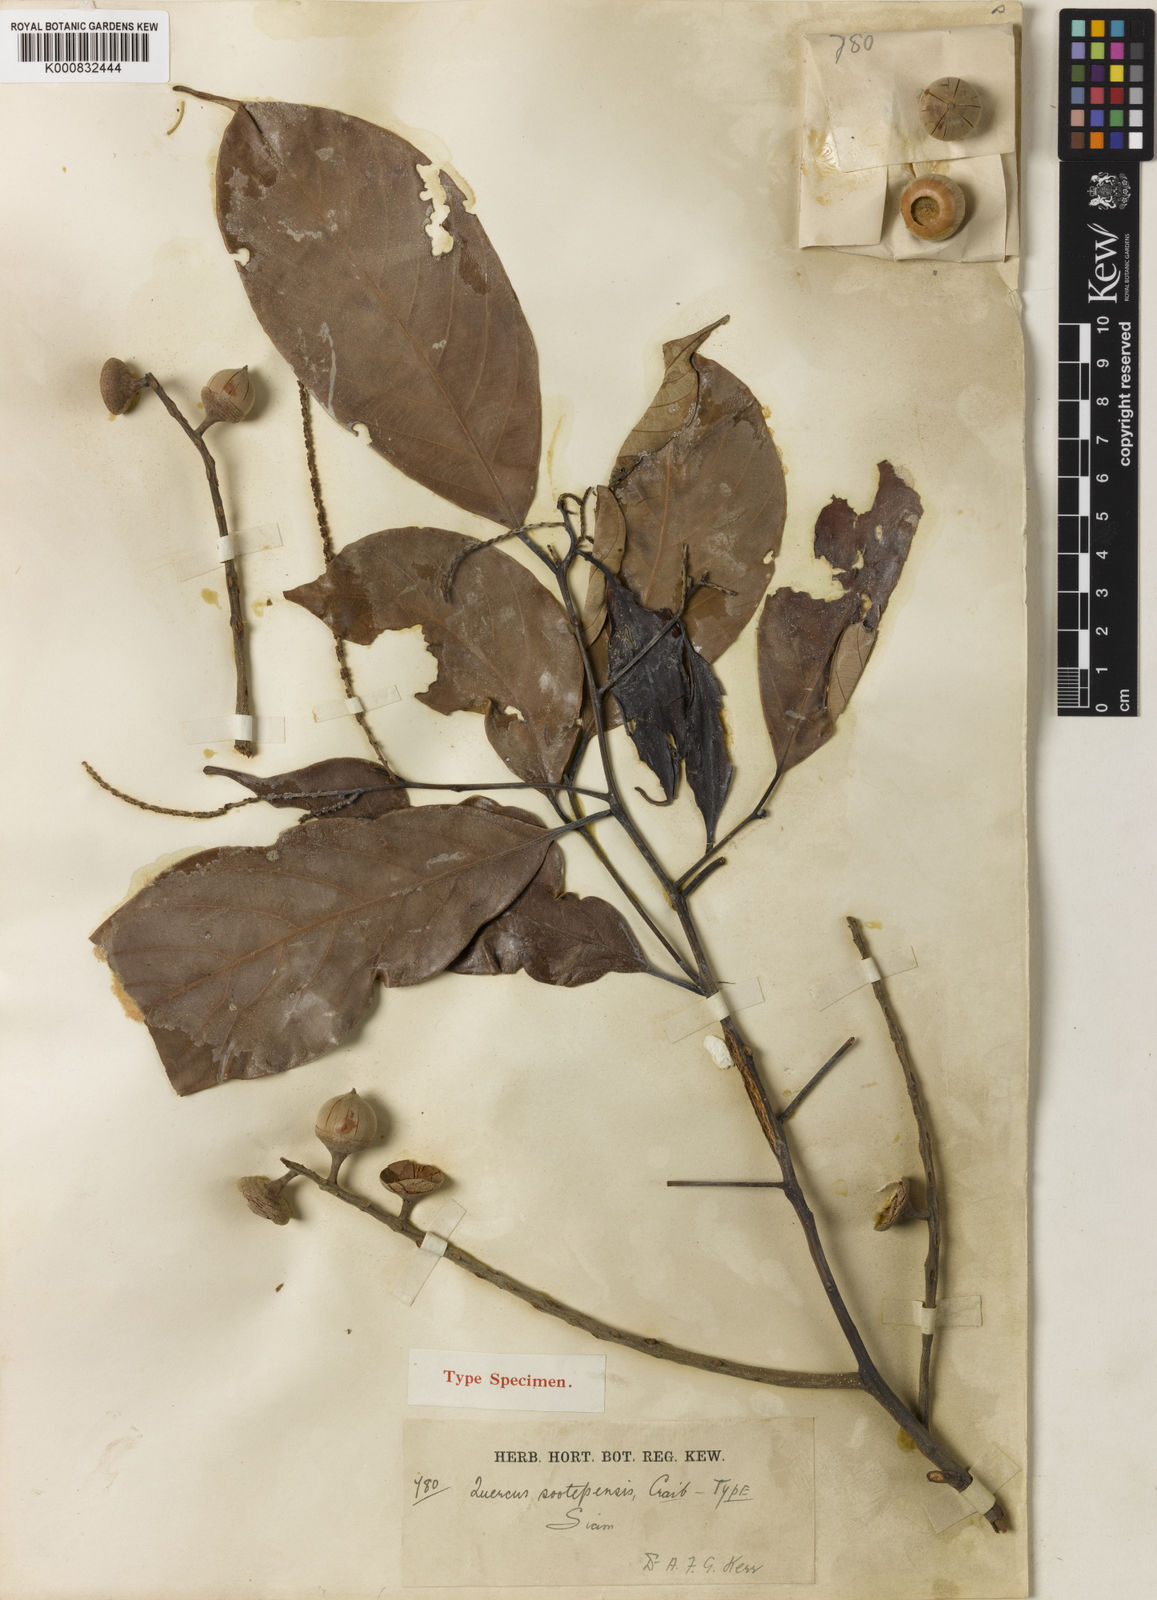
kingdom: Plantae
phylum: Tracheophyta
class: Magnoliopsida
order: Fagales
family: Fagaceae
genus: Lithocarpus
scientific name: Lithocarpus sootepensis
